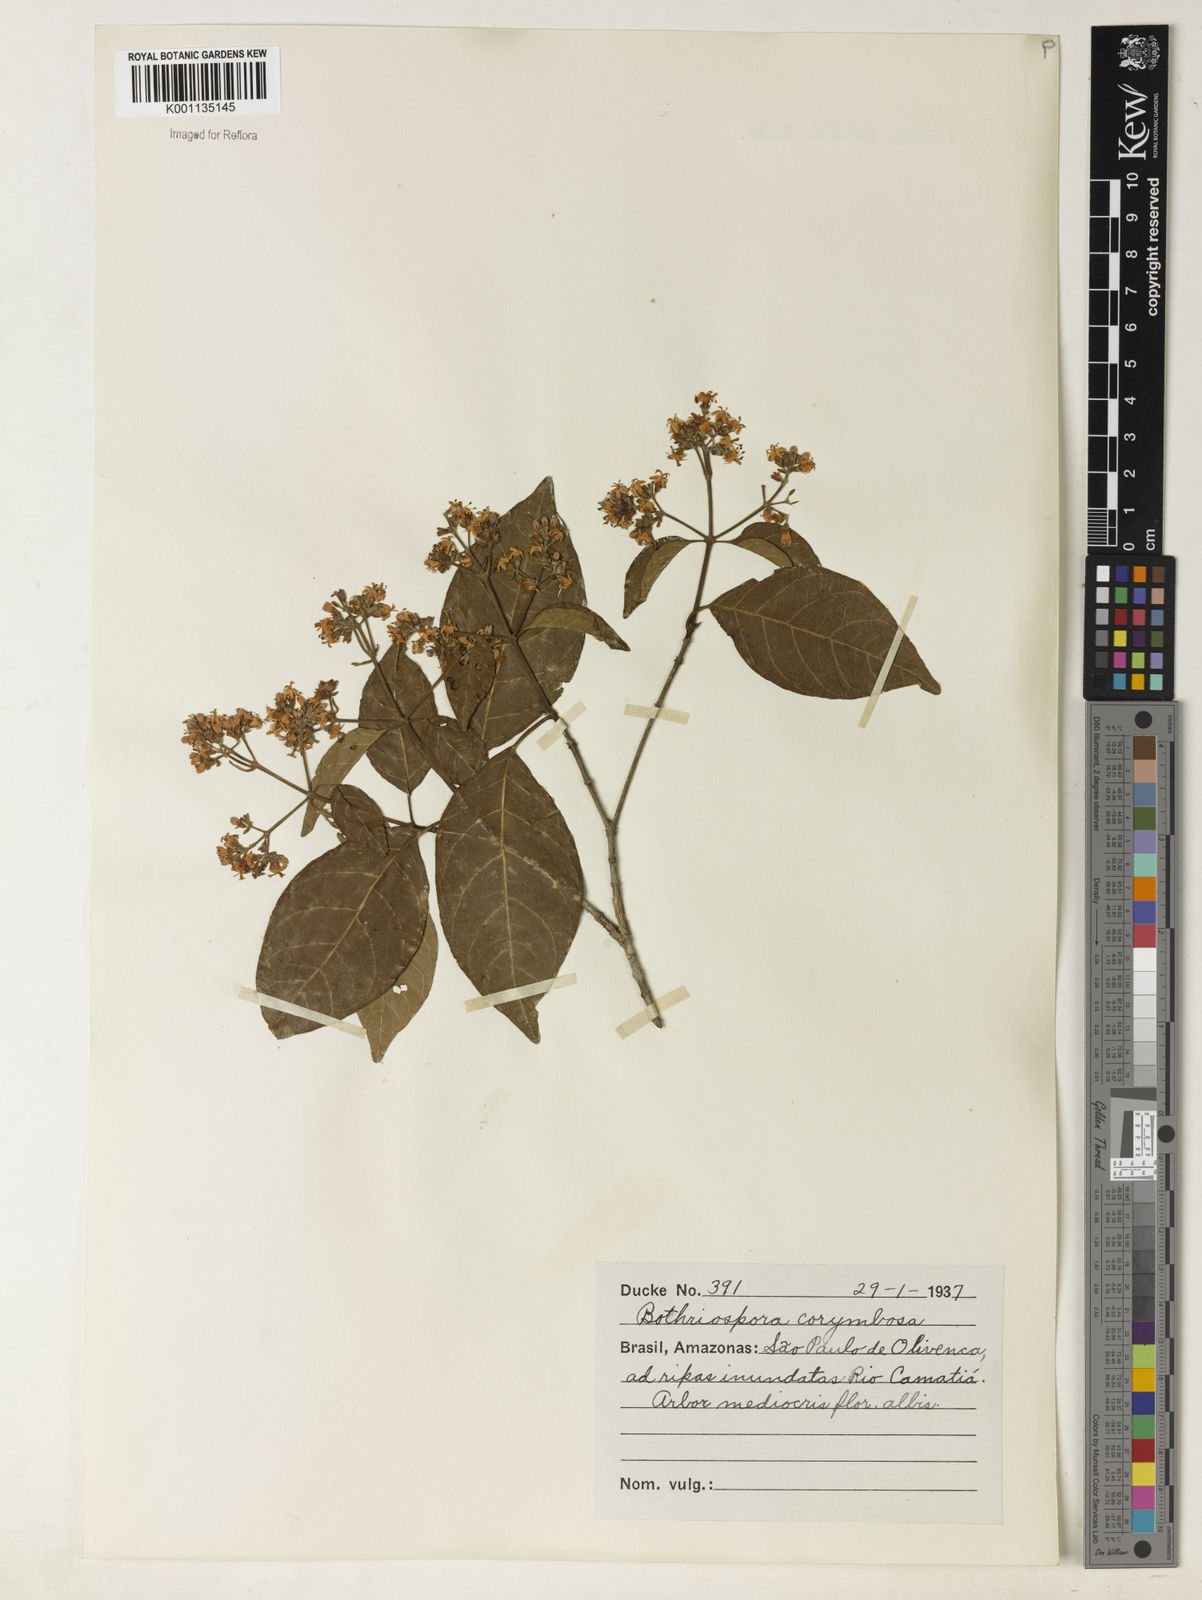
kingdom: Plantae
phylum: Tracheophyta
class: Magnoliopsida
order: Gentianales
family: Rubiaceae
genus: Bothriospora
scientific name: Bothriospora corymbosa
